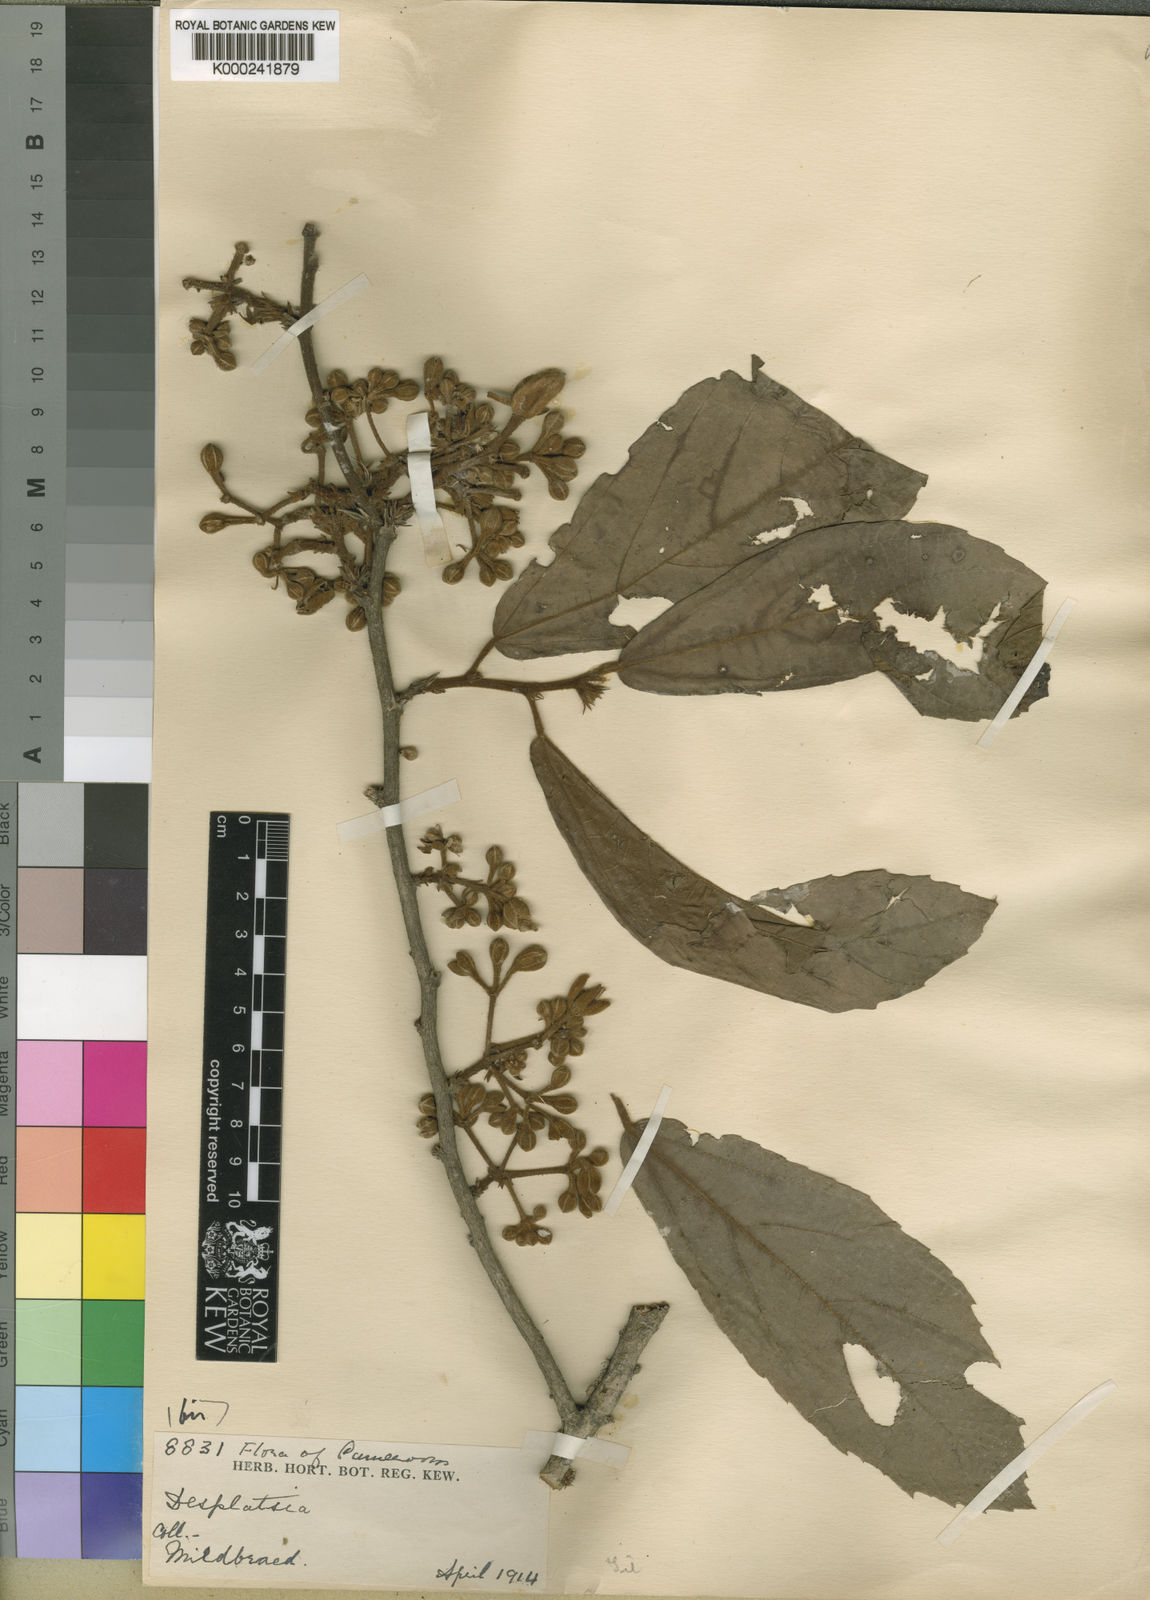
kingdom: Plantae
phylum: Tracheophyta
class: Magnoliopsida
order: Malvales
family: Malvaceae
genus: Desplatsia
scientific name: Desplatsia chrysochlamys
